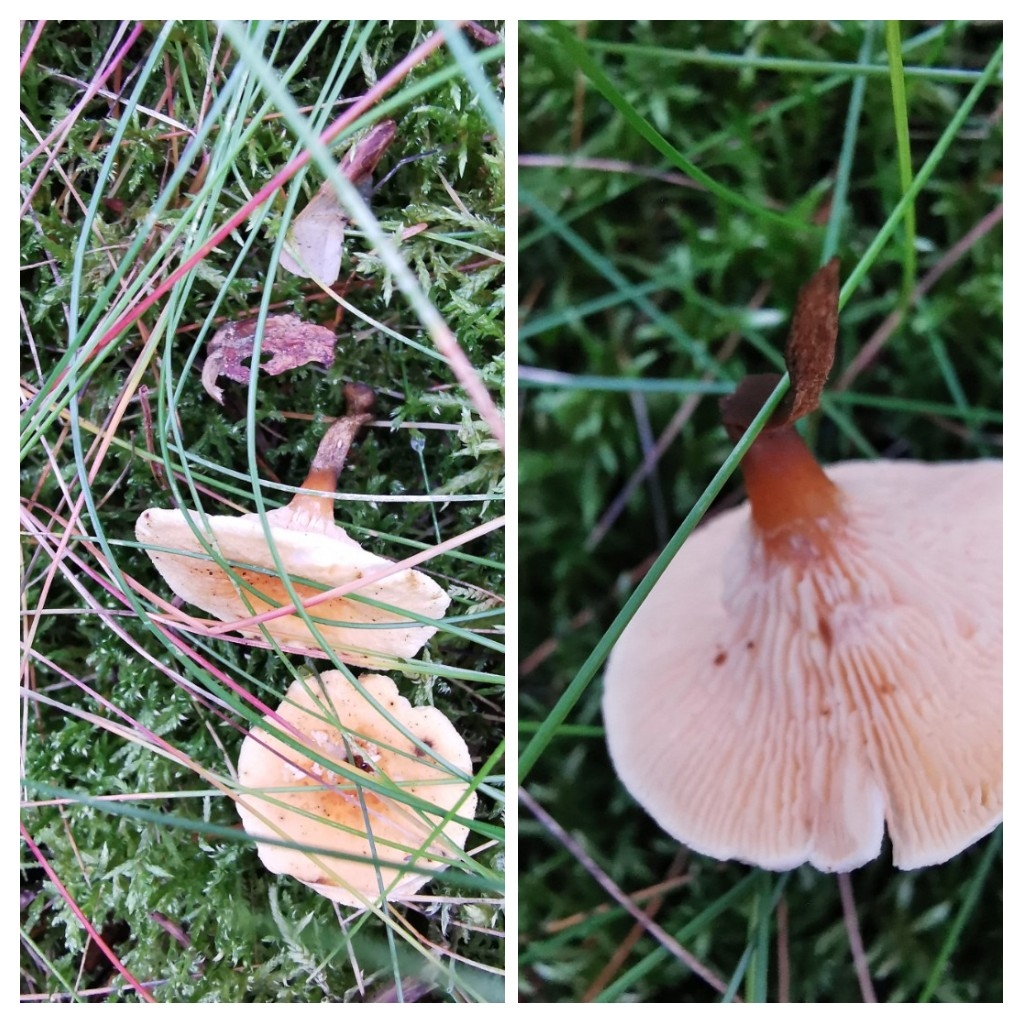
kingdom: Fungi
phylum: Basidiomycota
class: Agaricomycetes
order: Boletales
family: Hygrophoropsidaceae
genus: Hygrophoropsis
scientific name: Hygrophoropsis aurantiaca
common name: almindelig orangekantarel
